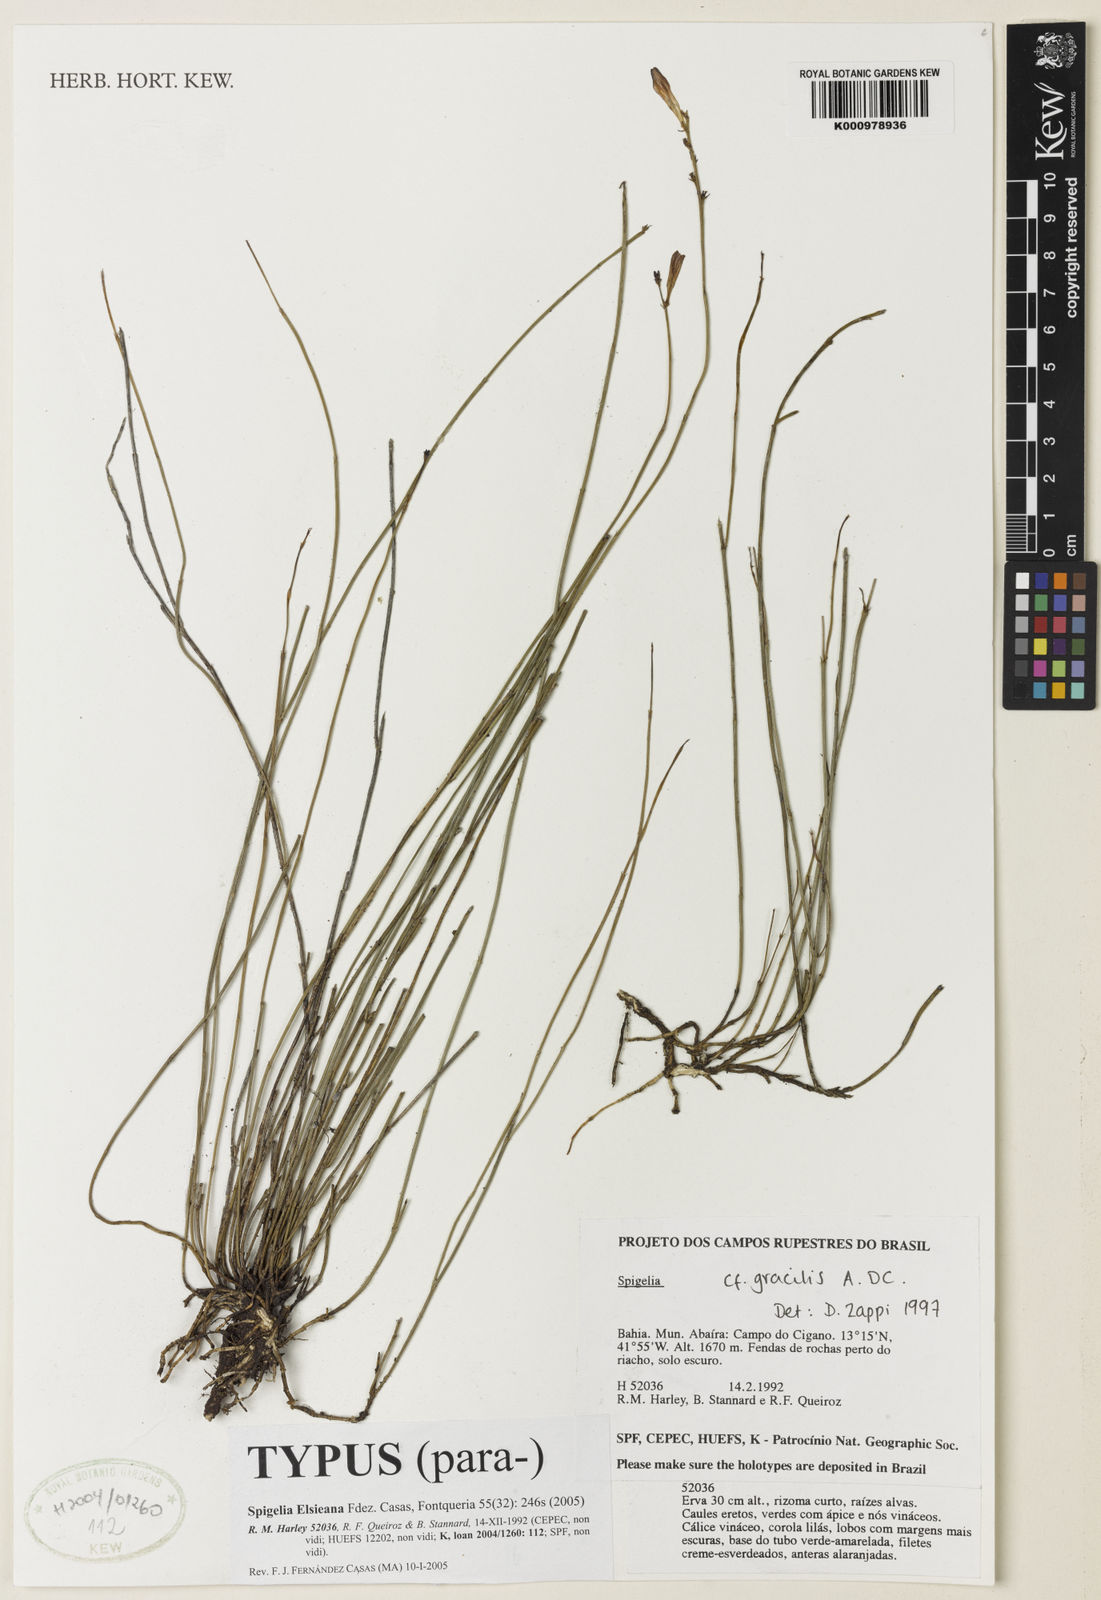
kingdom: Plantae
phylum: Tracheophyta
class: Magnoliopsida
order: Gentianales
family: Loganiaceae
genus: Spigelia
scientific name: Spigelia
